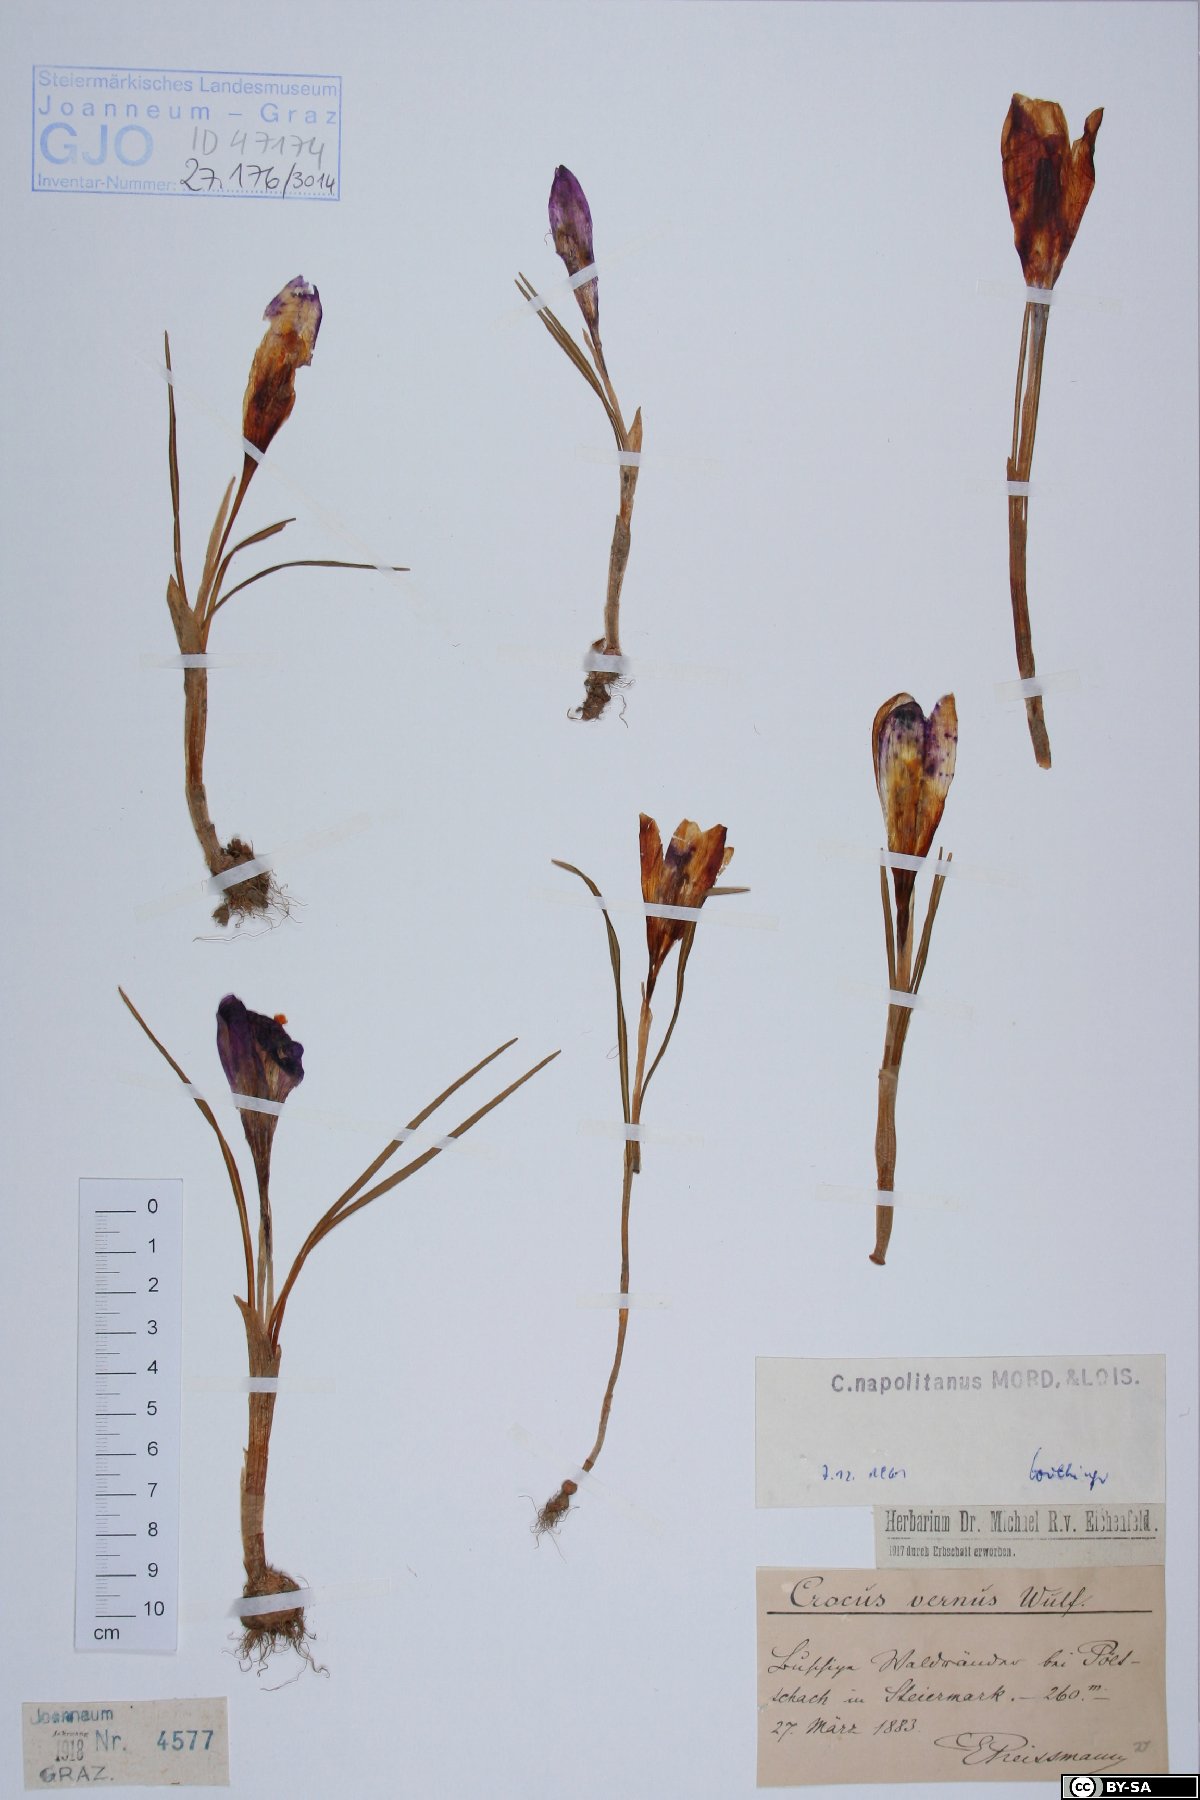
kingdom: Plantae
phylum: Tracheophyta
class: Liliopsida
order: Asparagales
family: Iridaceae
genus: Crocus
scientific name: Crocus vernus
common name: Spring crocus
